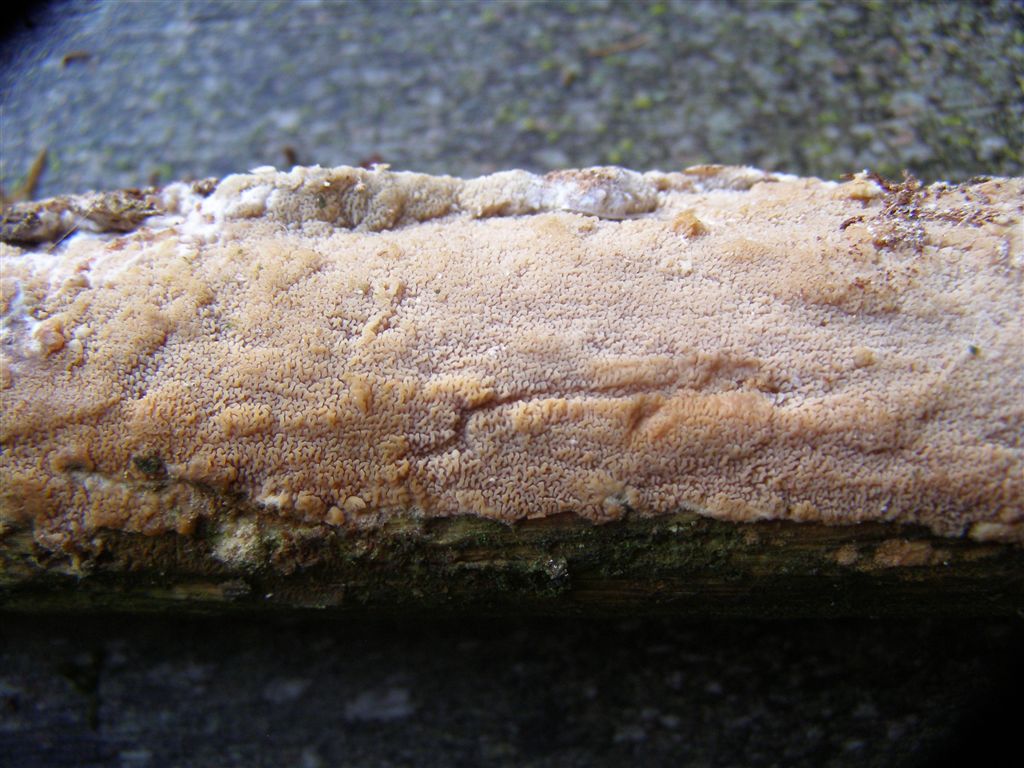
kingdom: Fungi
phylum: Basidiomycota
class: Agaricomycetes
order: Polyporales
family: Meruliaceae
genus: Phlebia
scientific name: Phlebia rufa
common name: ege-åresvamp
